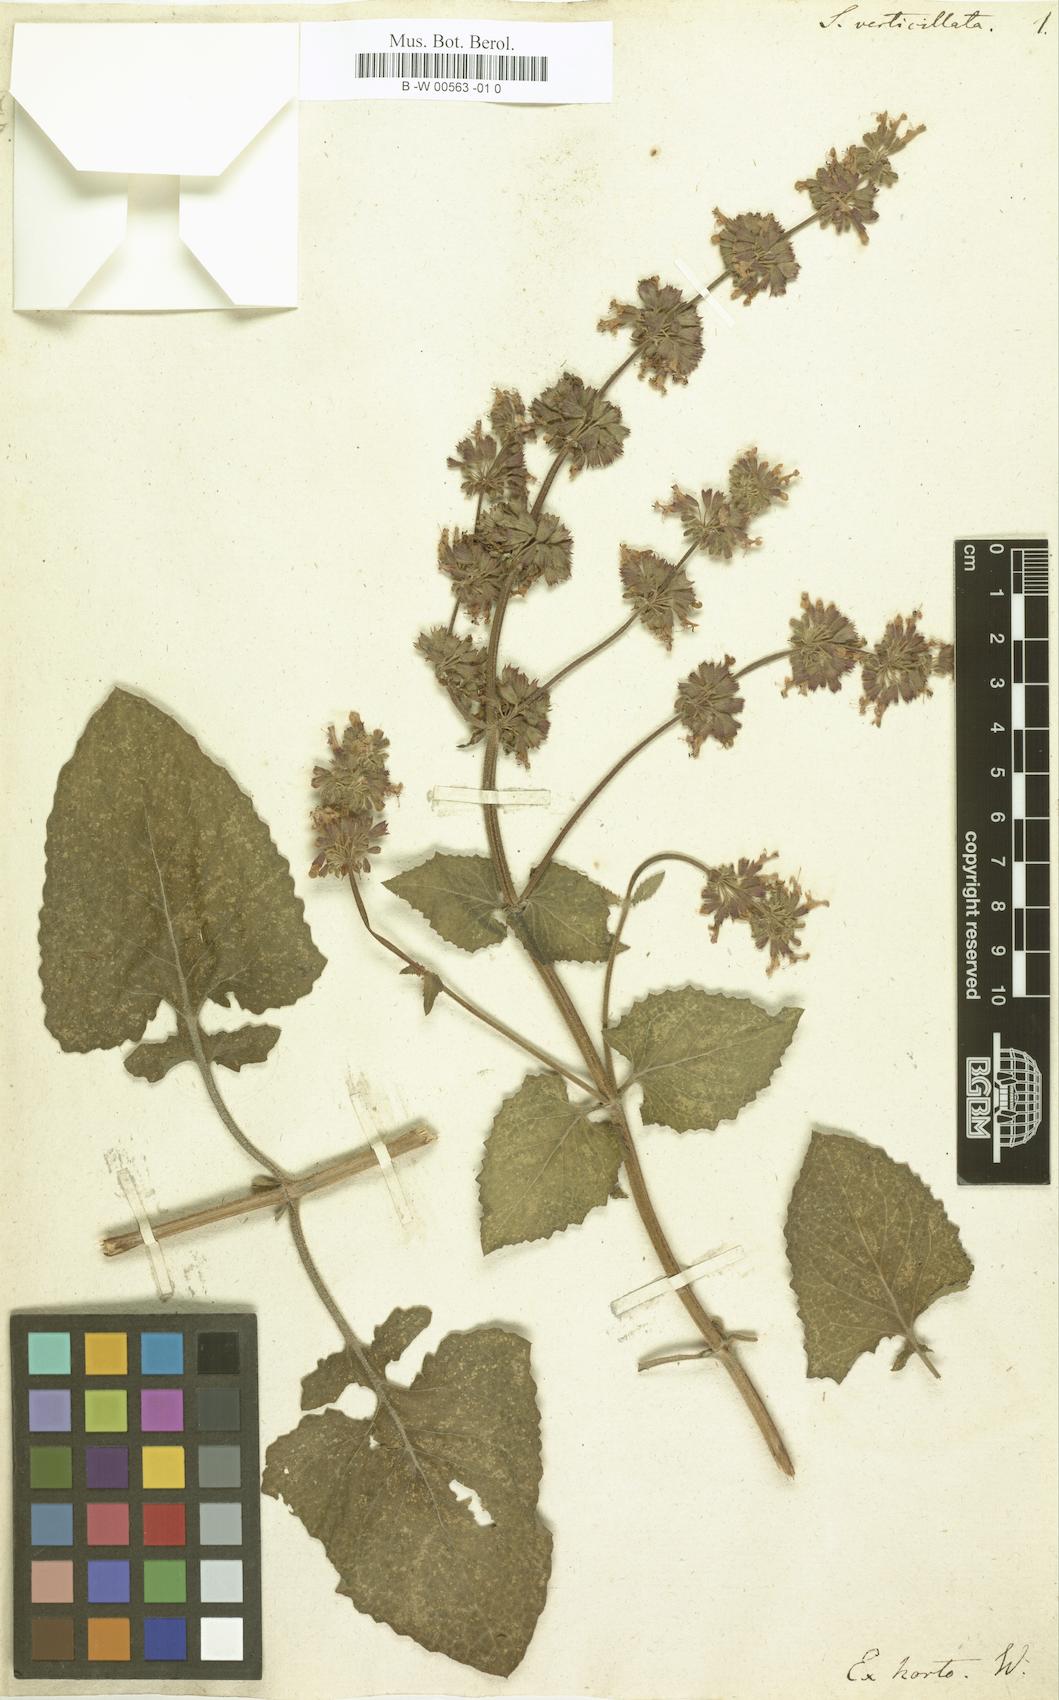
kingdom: Plantae
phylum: Tracheophyta
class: Magnoliopsida
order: Lamiales
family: Lamiaceae
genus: Salvia
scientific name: Salvia verticillata
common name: Whorled clary
